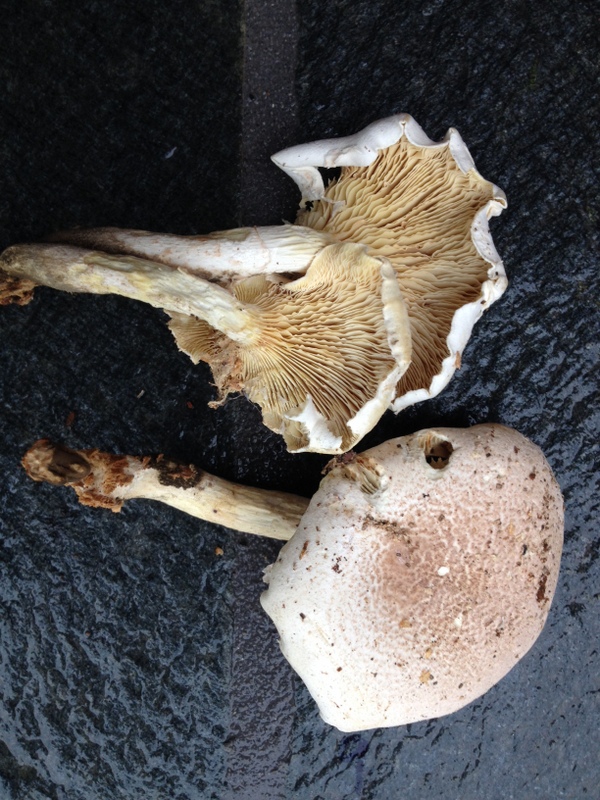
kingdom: Fungi
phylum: Basidiomycota
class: Agaricomycetes
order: Agaricales
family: Pleurotaceae
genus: Pleurotus
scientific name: Pleurotus dryinus
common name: korkagtig østershat
